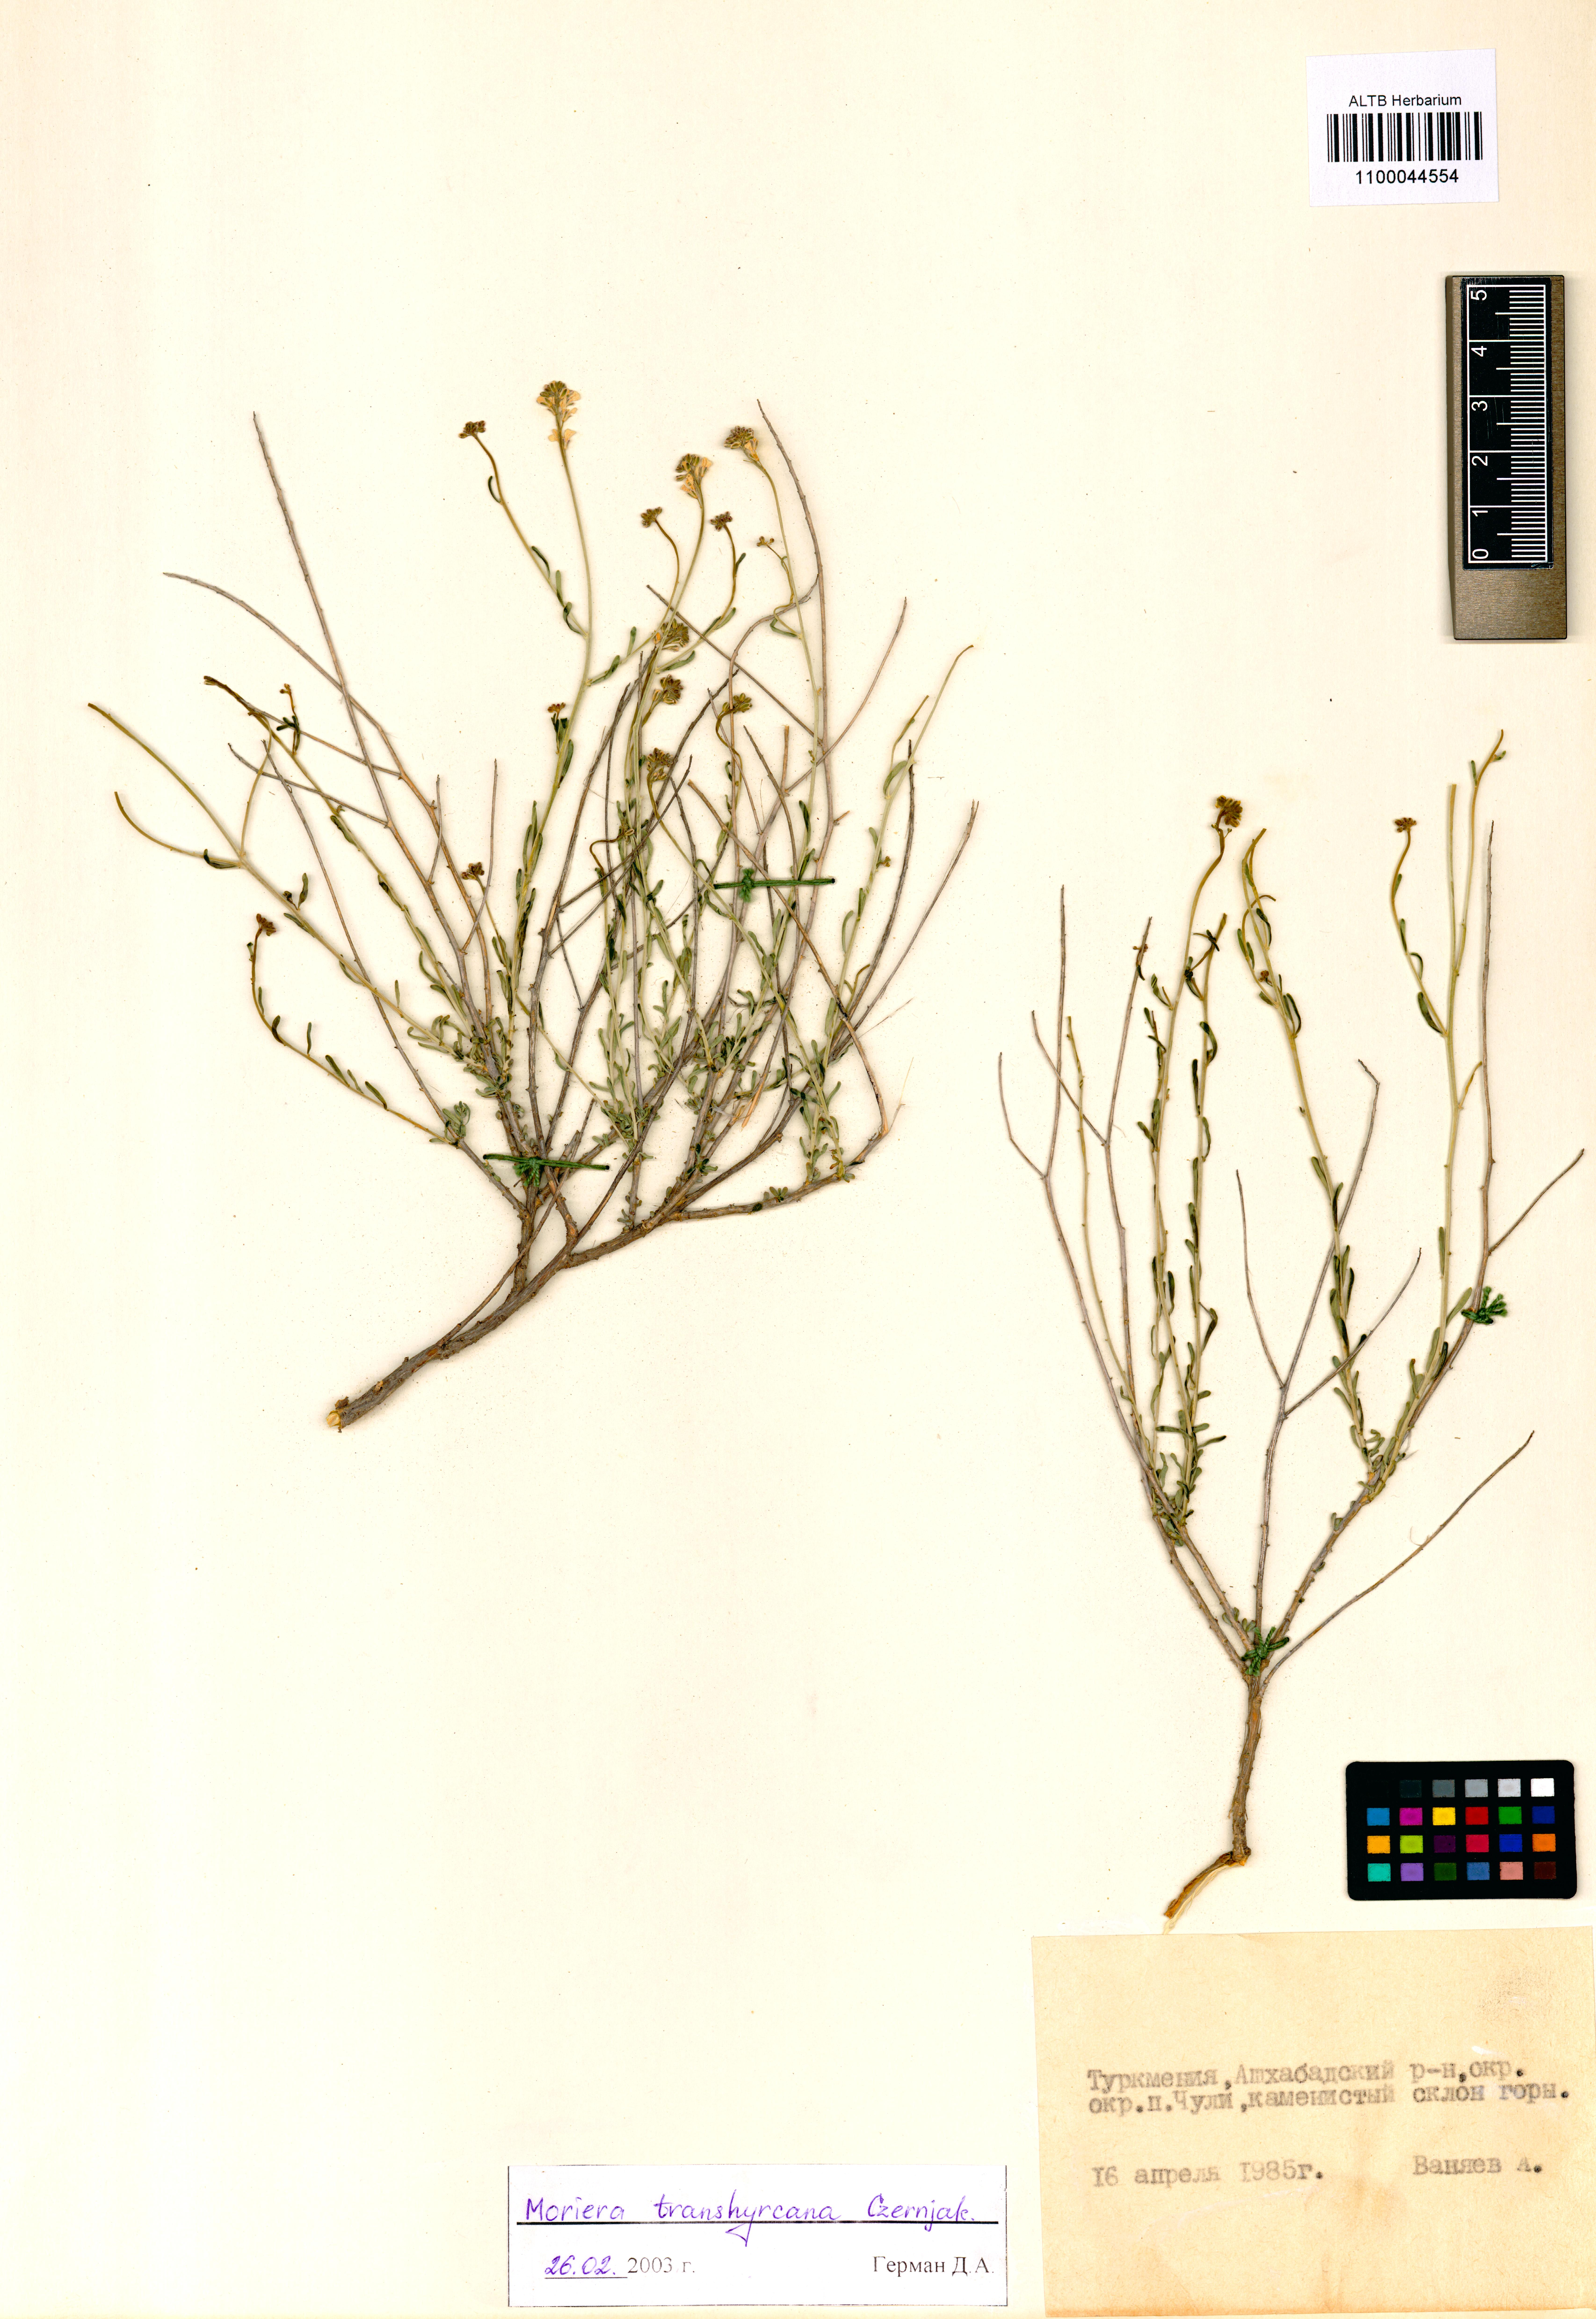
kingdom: Plantae
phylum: Tracheophyta
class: Magnoliopsida
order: Brassicales
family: Brassicaceae
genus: Aethionema
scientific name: Aethionema transhyrcanum
